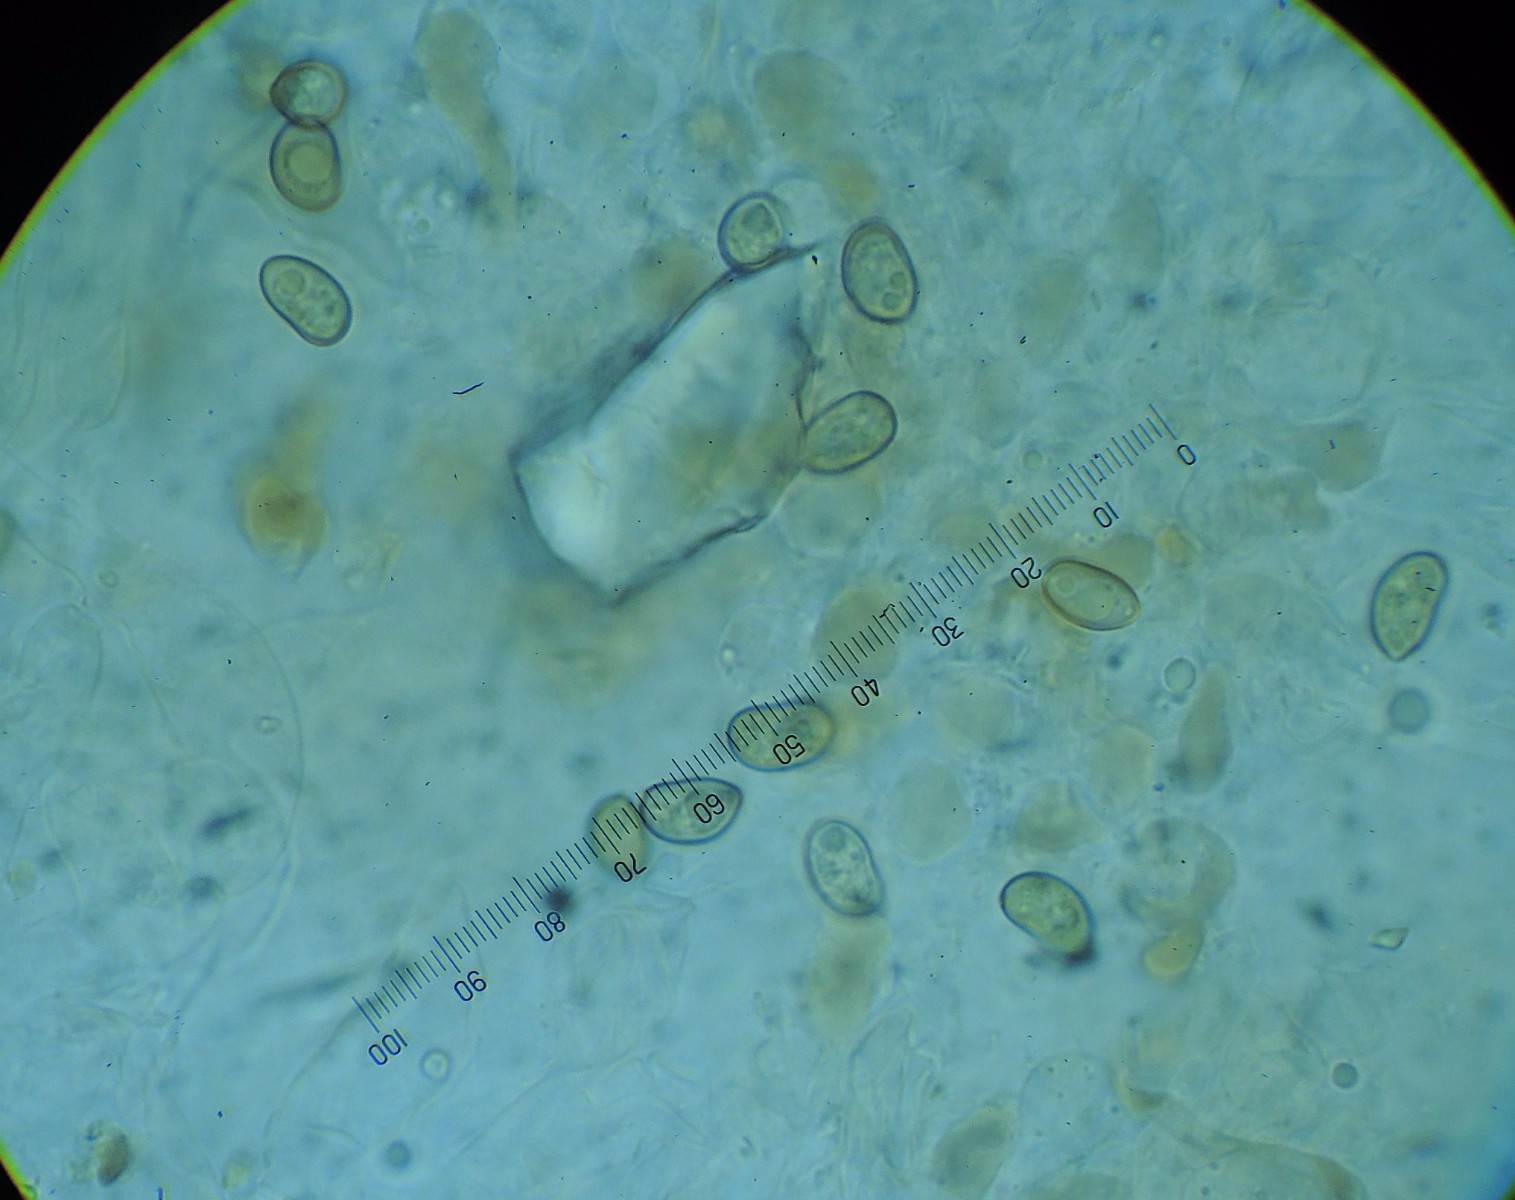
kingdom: Fungi
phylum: Basidiomycota
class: Agaricomycetes
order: Agaricales
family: Crepidotaceae
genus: Simocybe
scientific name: Simocybe centunculus
